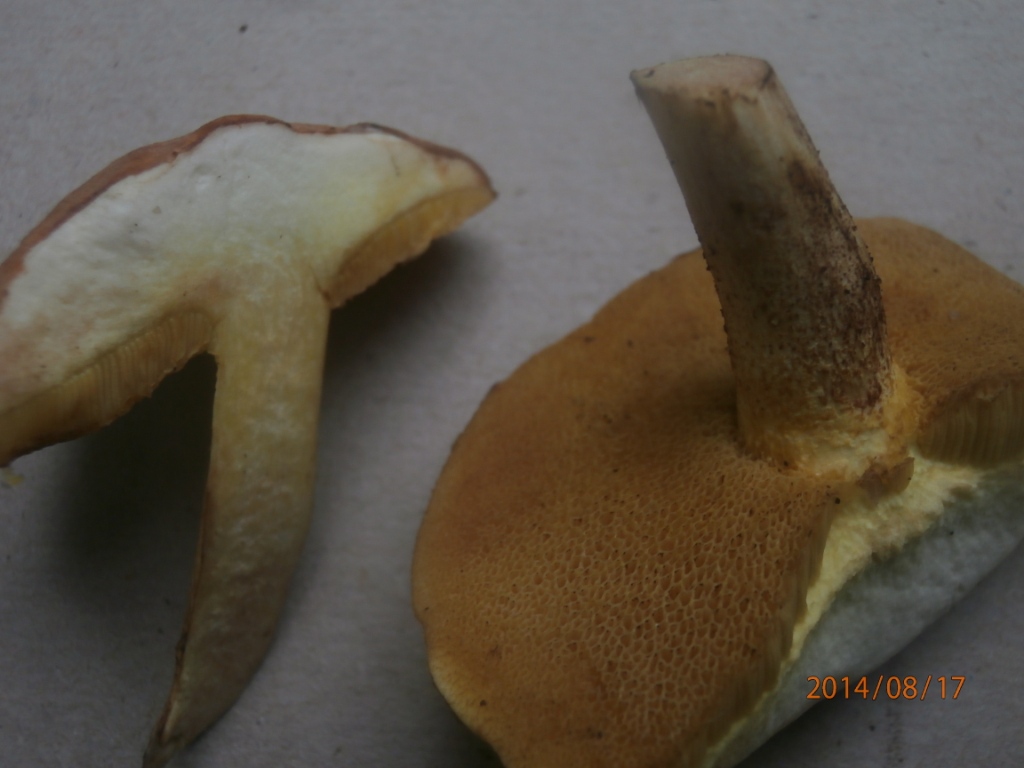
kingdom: Fungi
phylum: Basidiomycota
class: Agaricomycetes
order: Boletales
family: Suillaceae
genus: Suillus
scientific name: Suillus granulatus
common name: kornet slimrørhat
